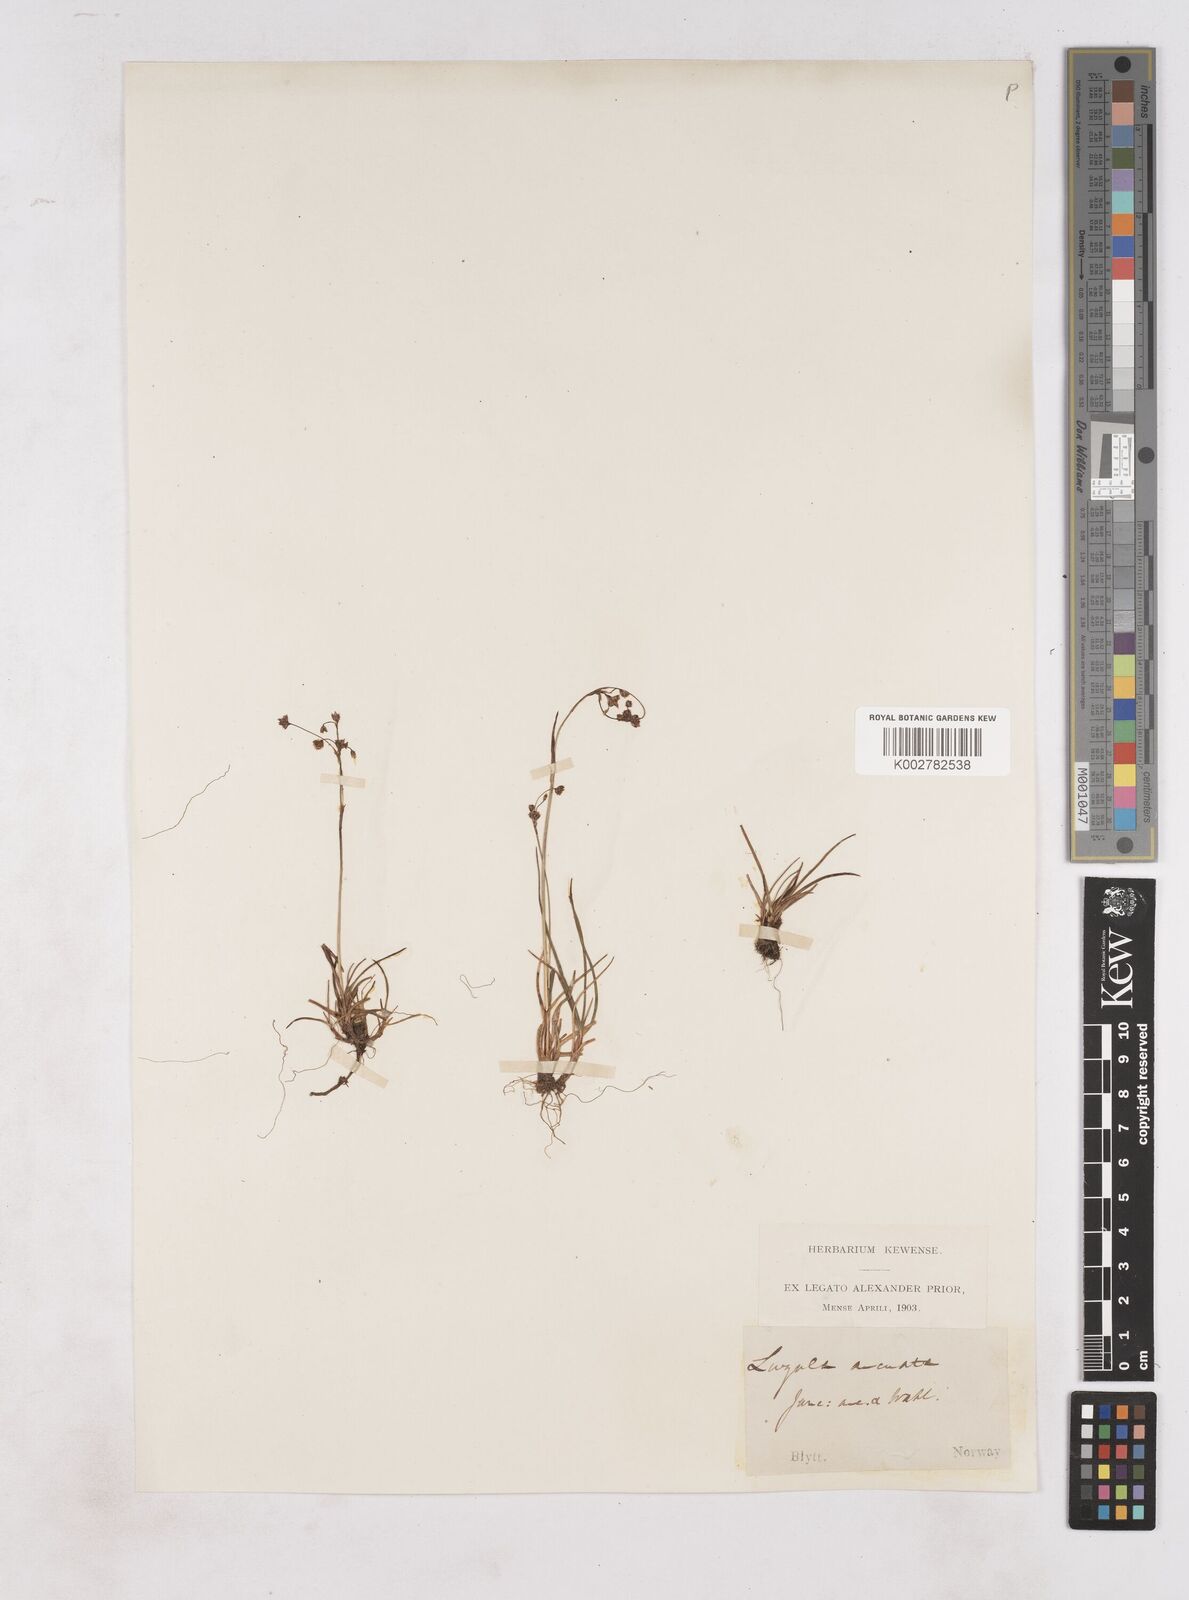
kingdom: Plantae
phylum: Tracheophyta
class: Liliopsida
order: Poales
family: Juncaceae
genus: Luzula
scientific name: Luzula arcuata
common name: Curved wood-rush
